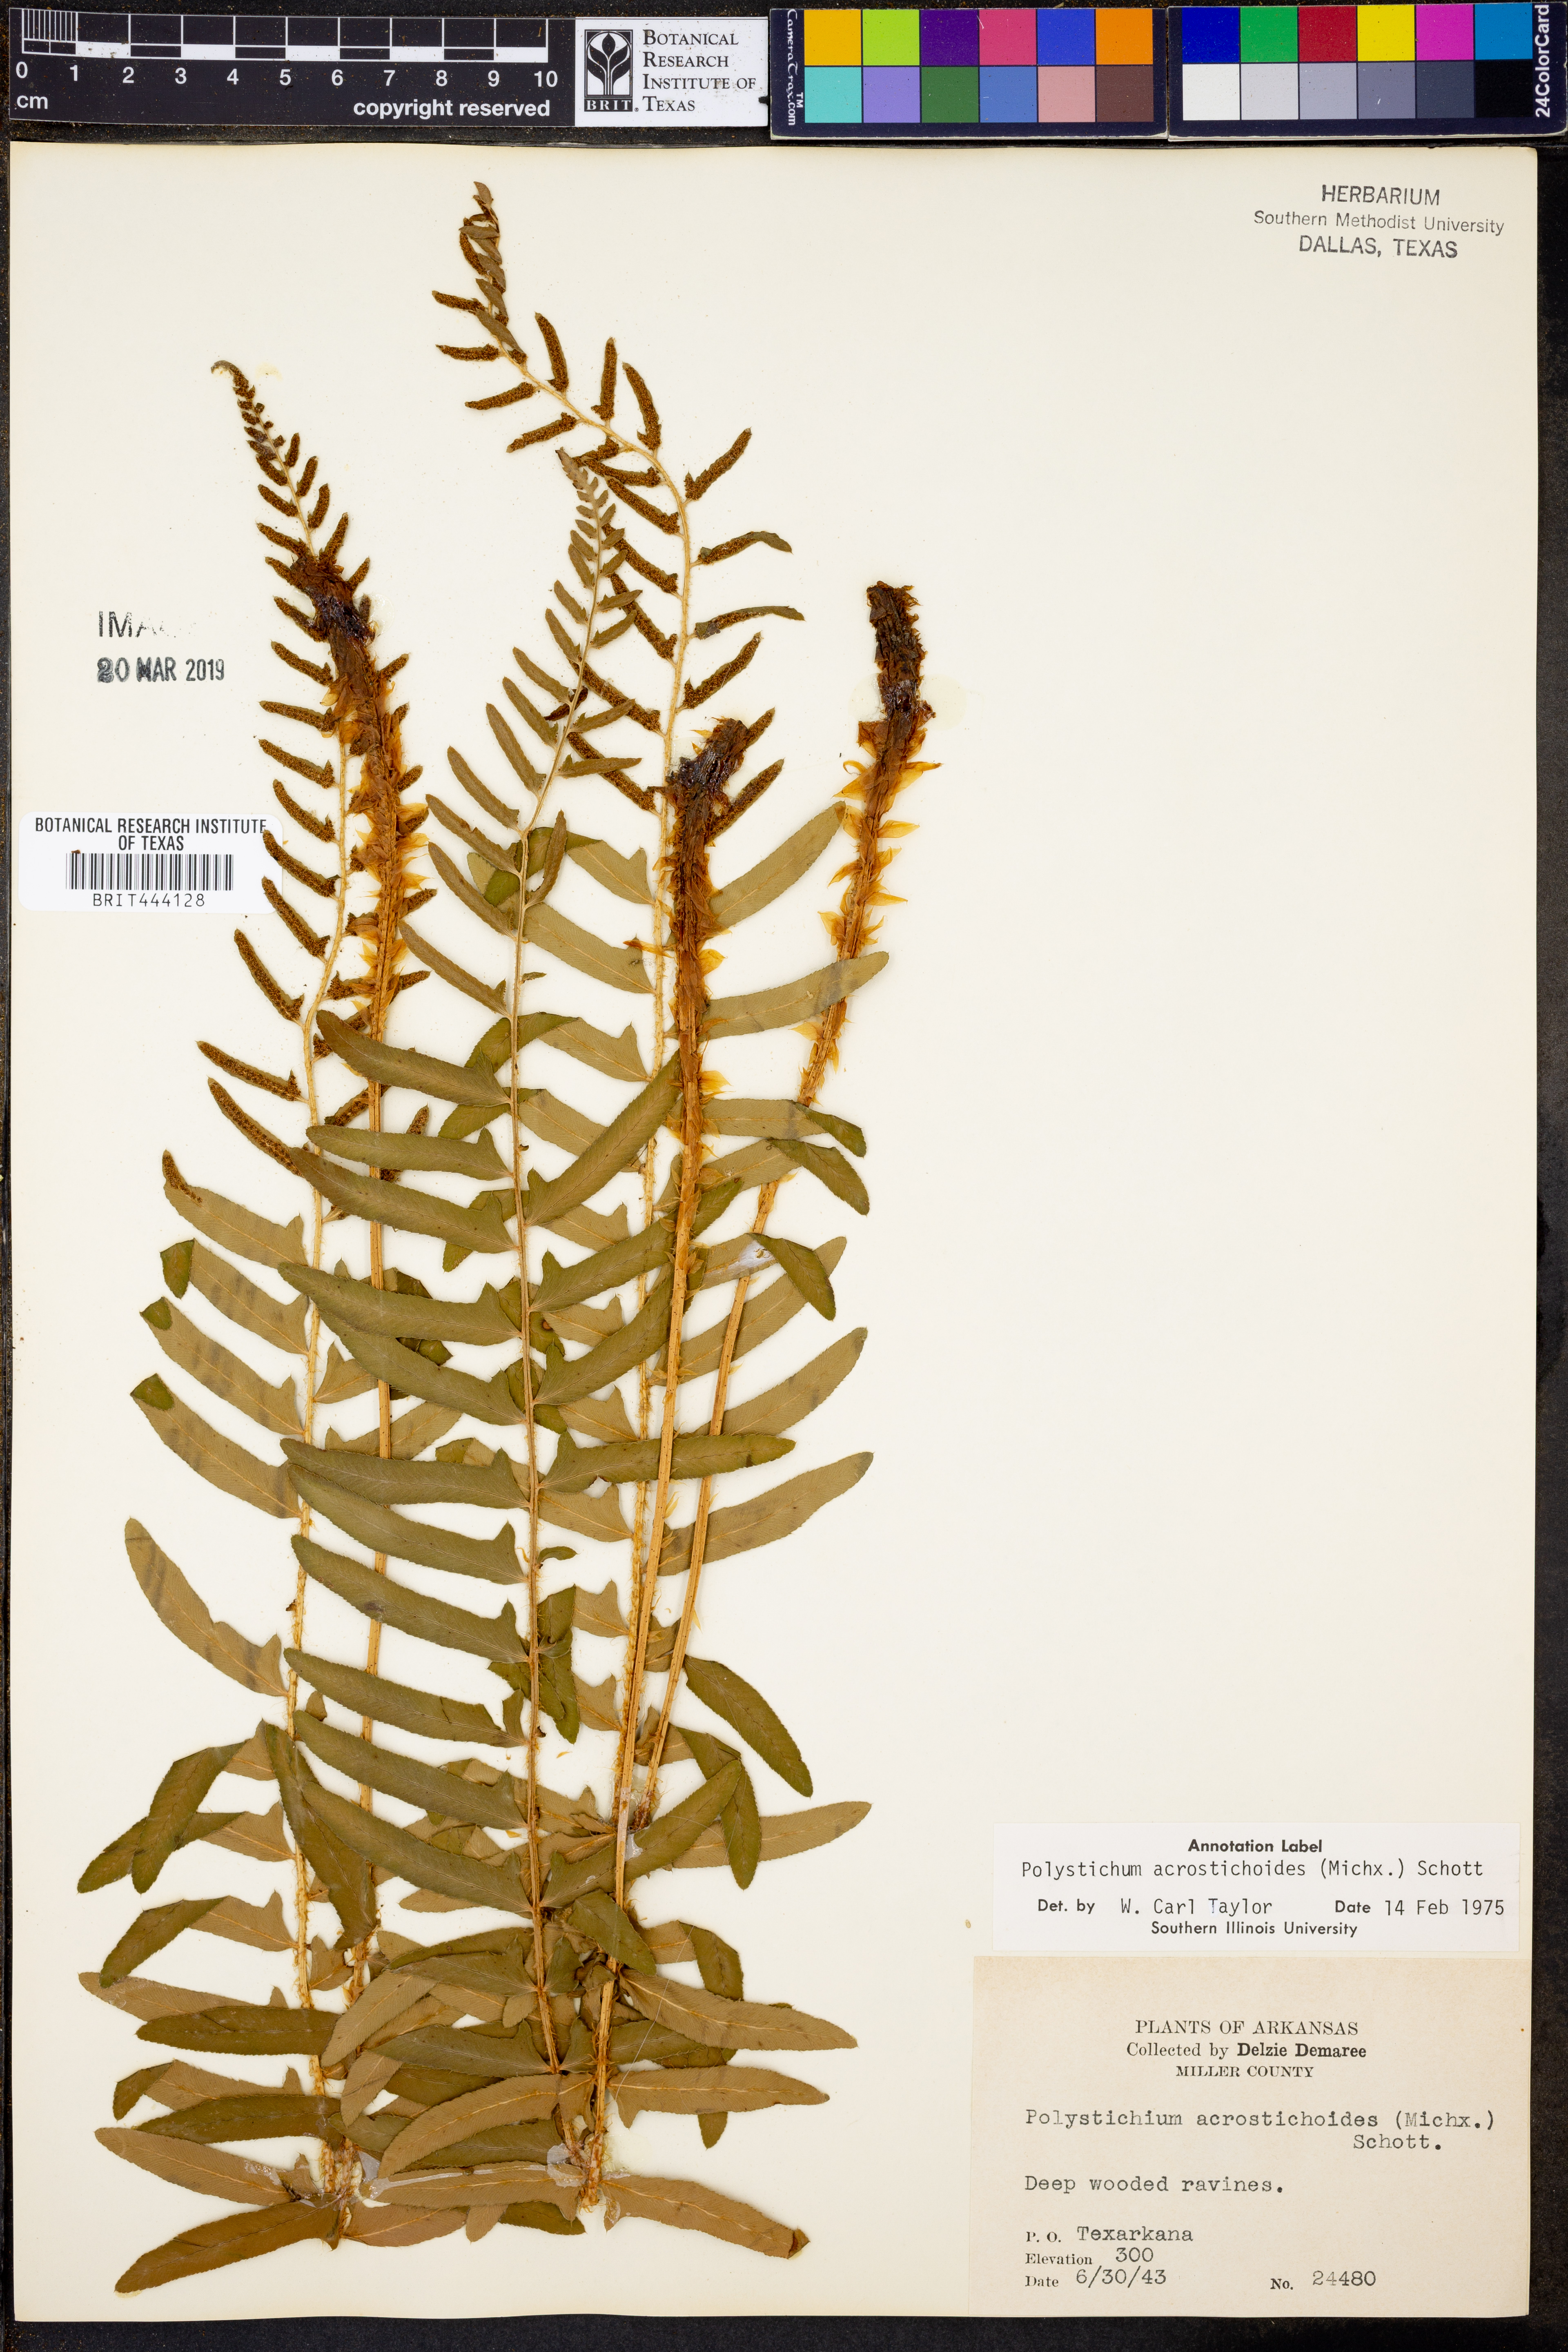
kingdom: Plantae
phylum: Tracheophyta
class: Polypodiopsida
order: Polypodiales
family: Dryopteridaceae
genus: Polystichum
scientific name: Polystichum acrostichoides
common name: Christmas fern
